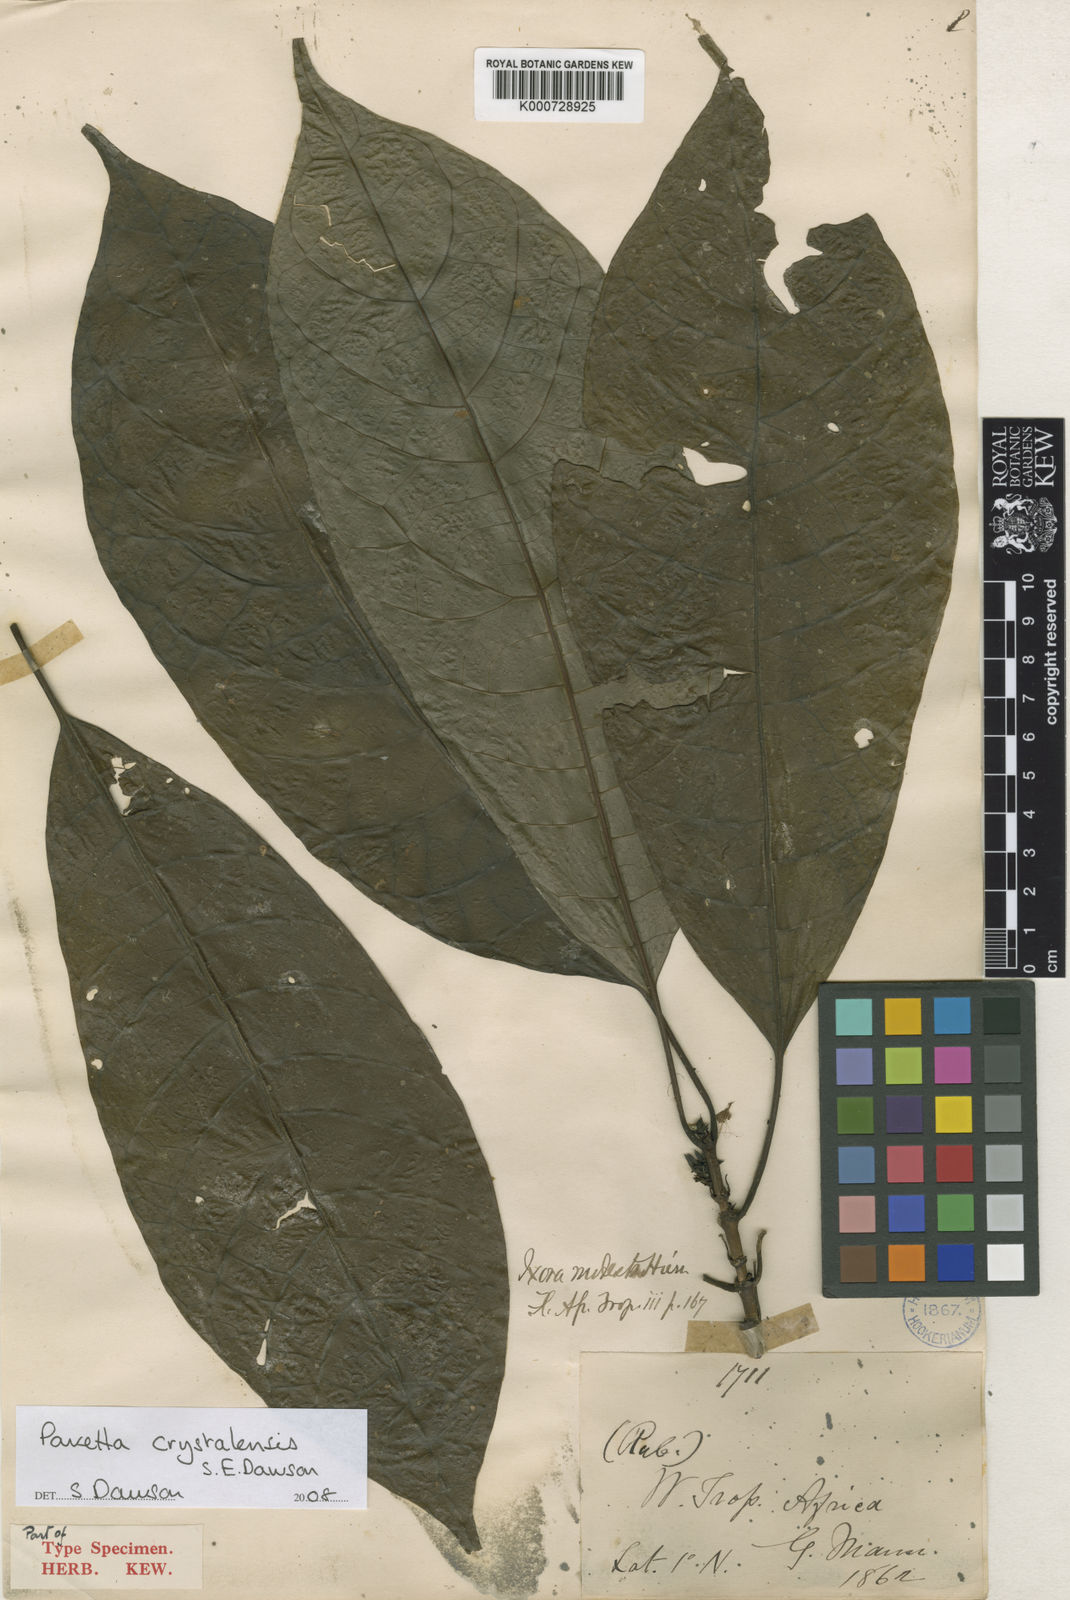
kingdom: Plantae
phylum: Tracheophyta
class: Magnoliopsida
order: Gentianales
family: Rubiaceae
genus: Pavetta
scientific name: Pavetta crystalensis
